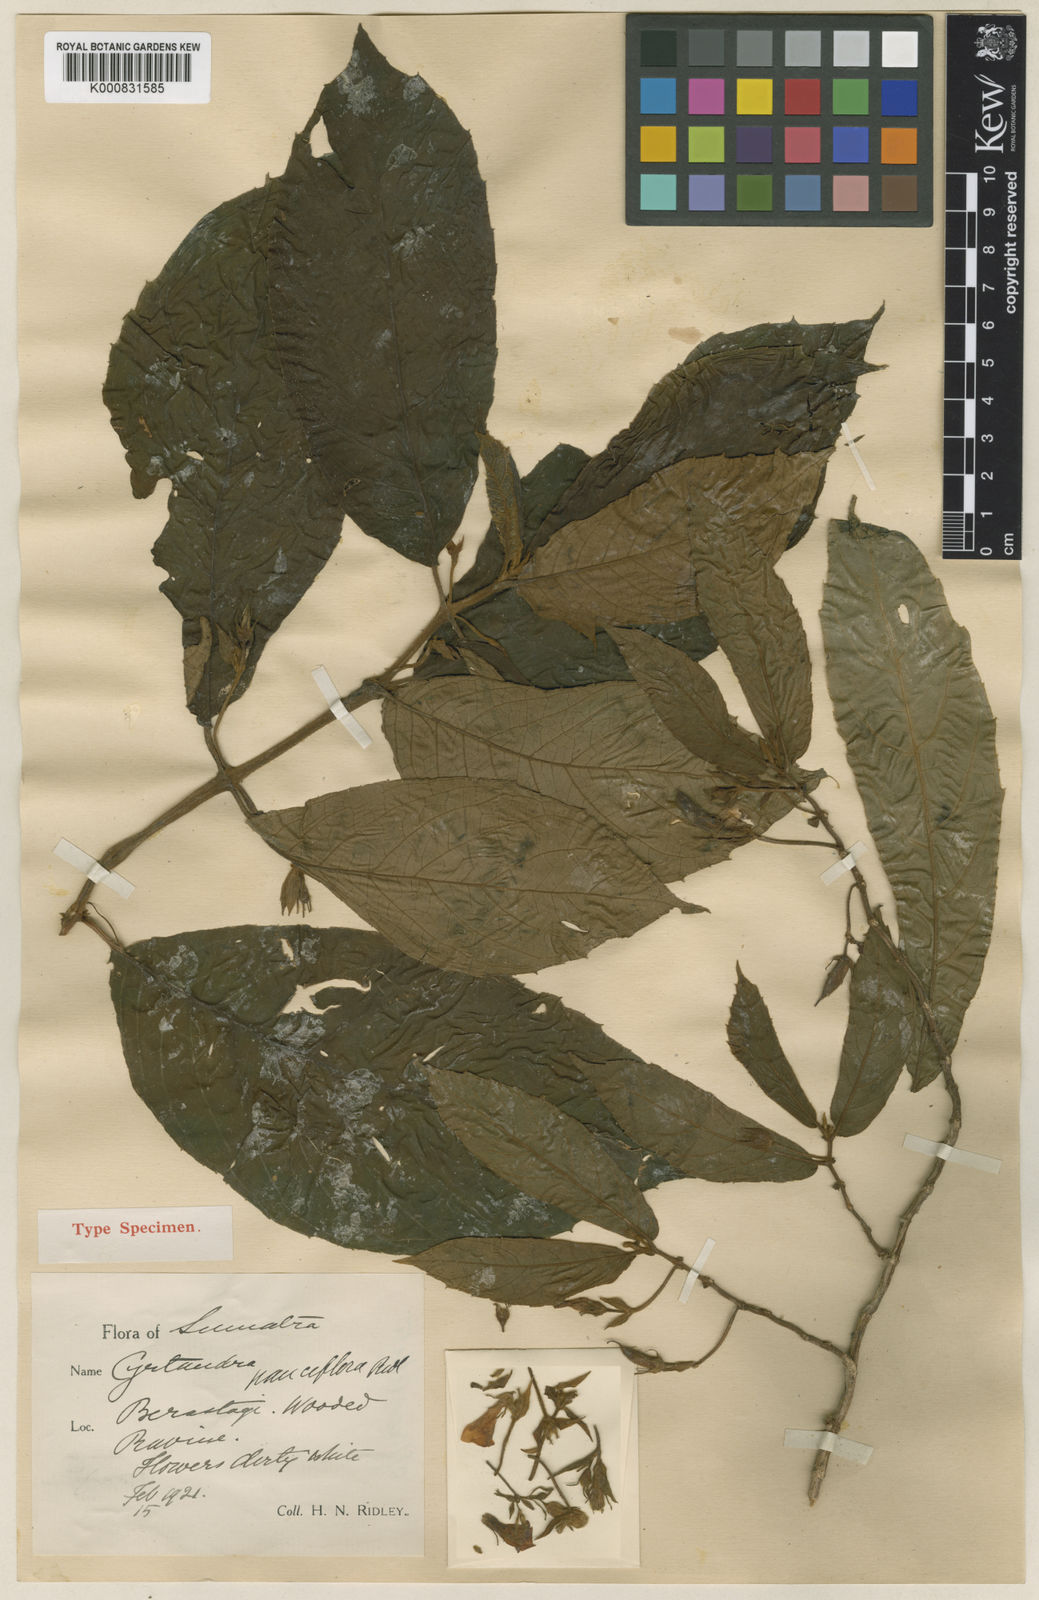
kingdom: Plantae
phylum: Tracheophyta
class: Magnoliopsida
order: Lamiales
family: Gesneriaceae
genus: Cyrtandra
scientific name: Cyrtandra pauciflora
